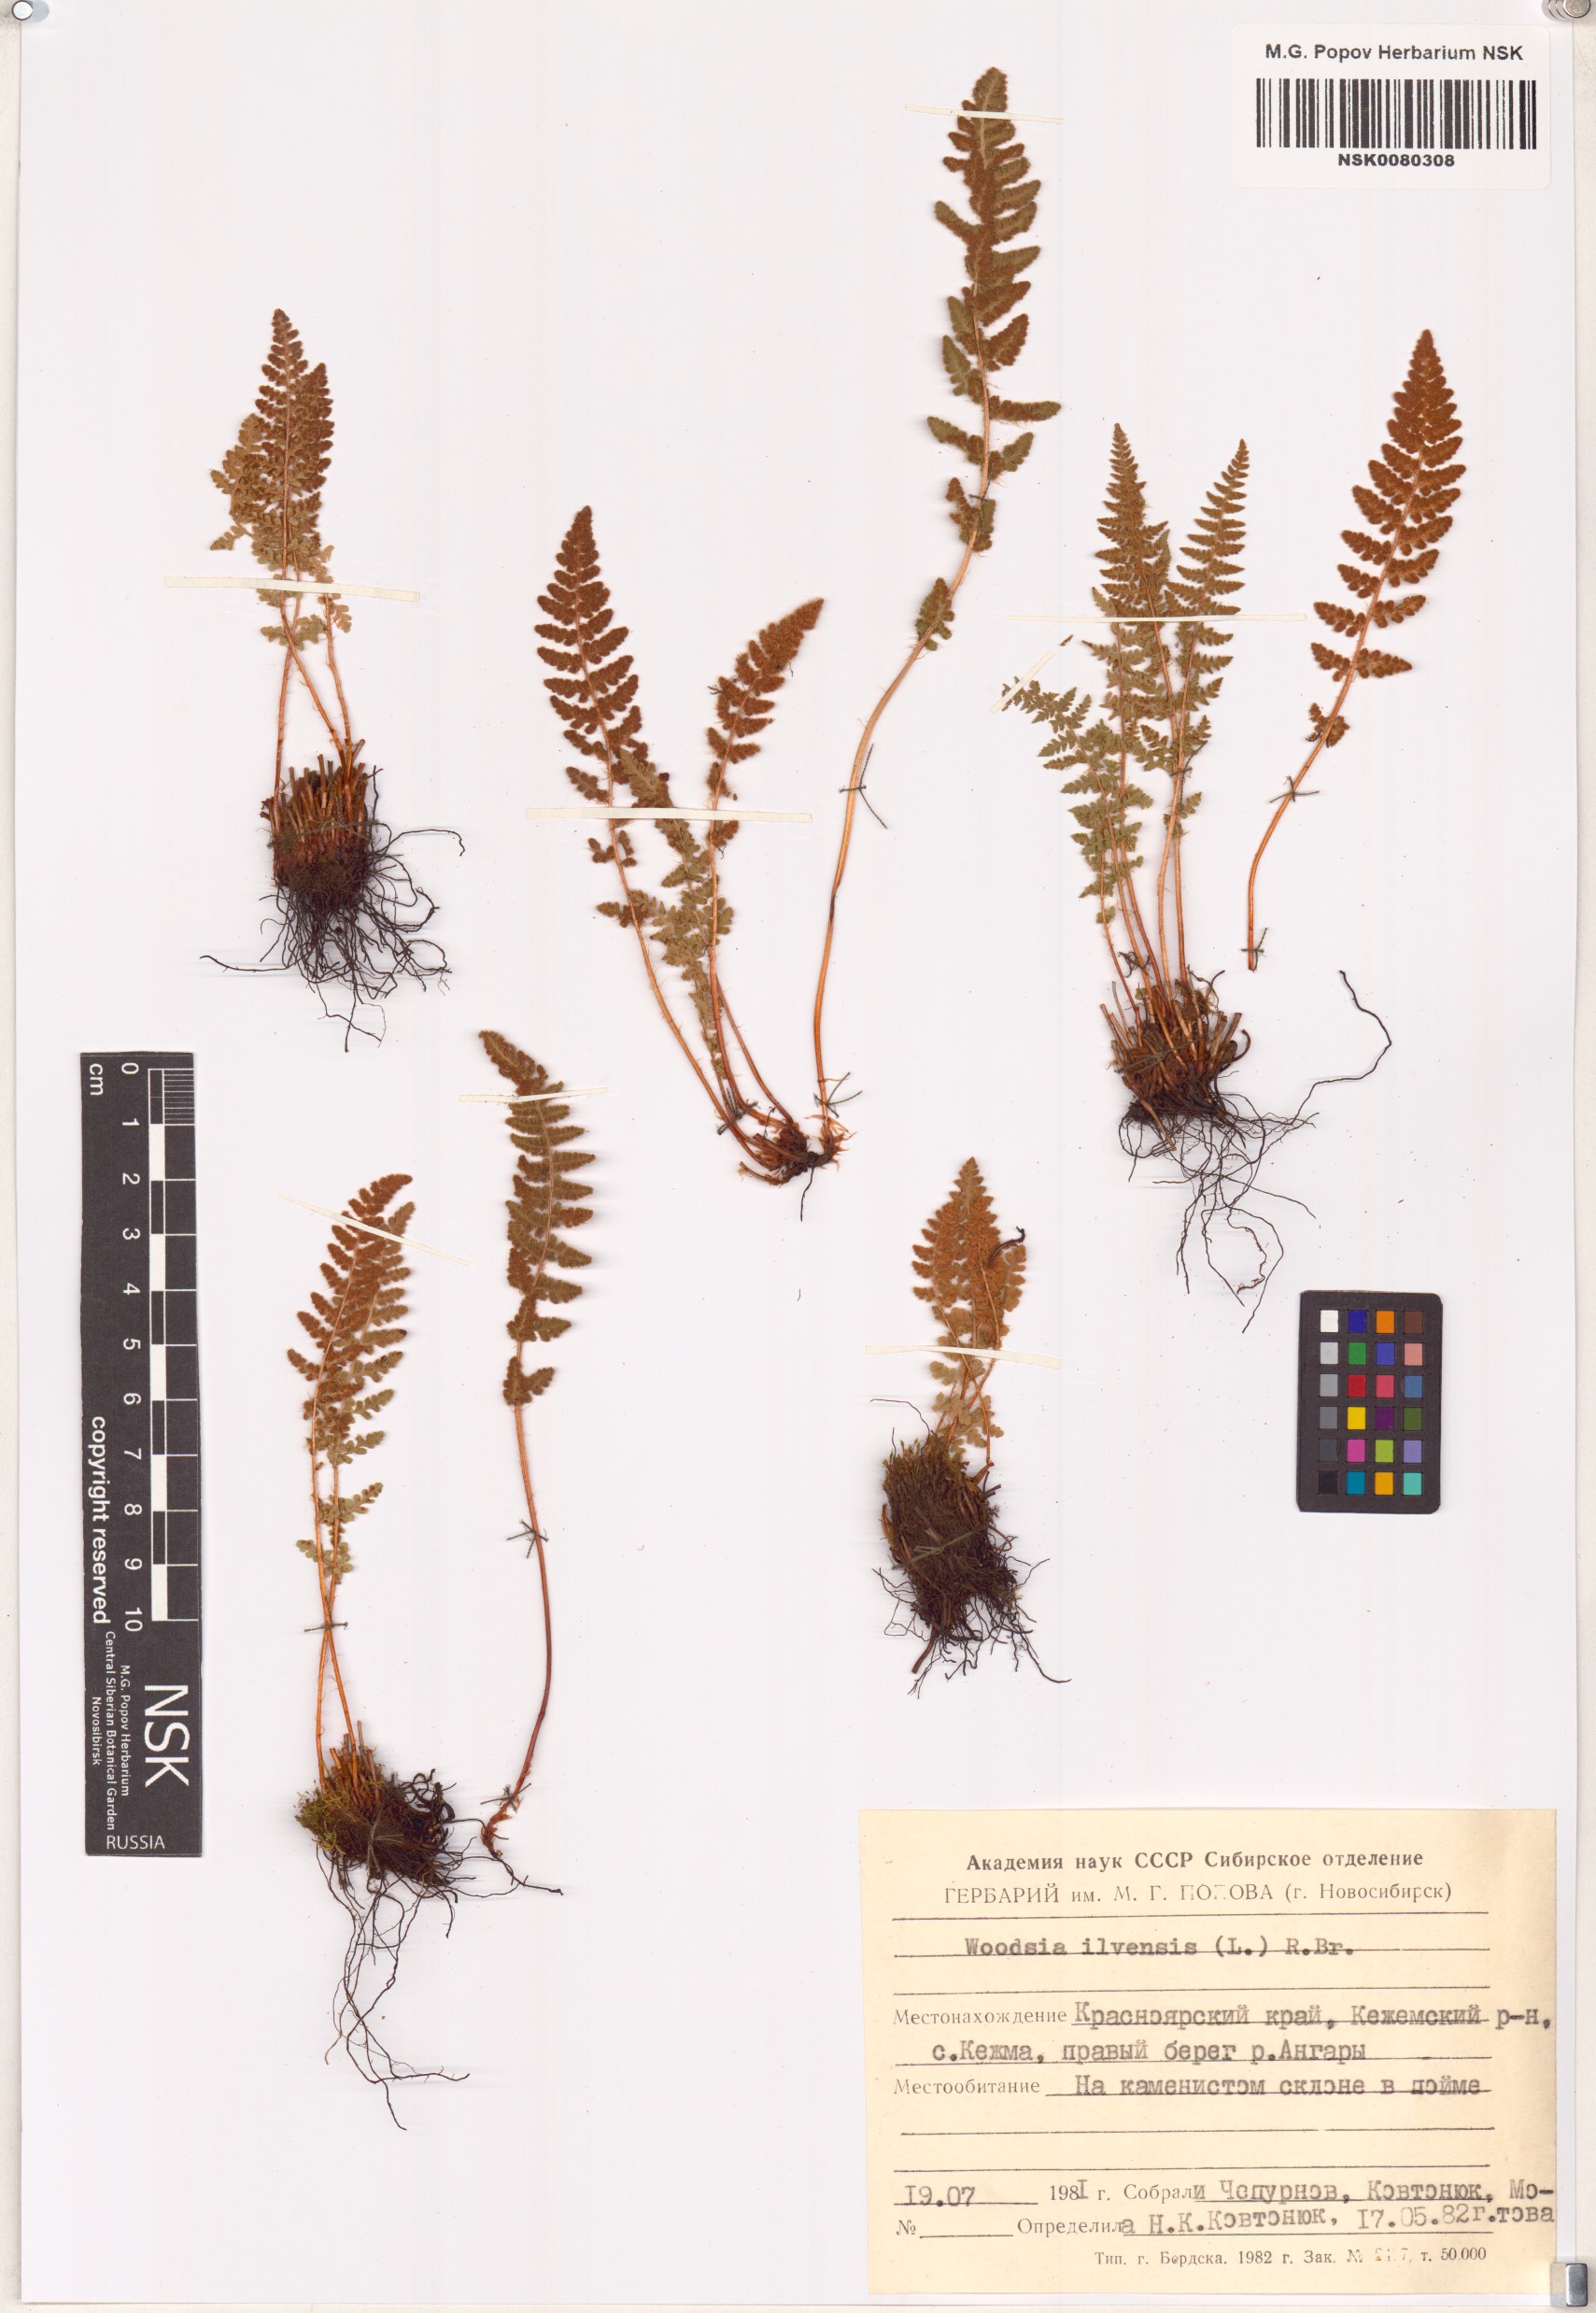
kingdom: Plantae
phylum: Tracheophyta
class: Polypodiopsida
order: Polypodiales
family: Woodsiaceae
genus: Woodsia
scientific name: Woodsia ilvensis
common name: Fragrant woodsia
